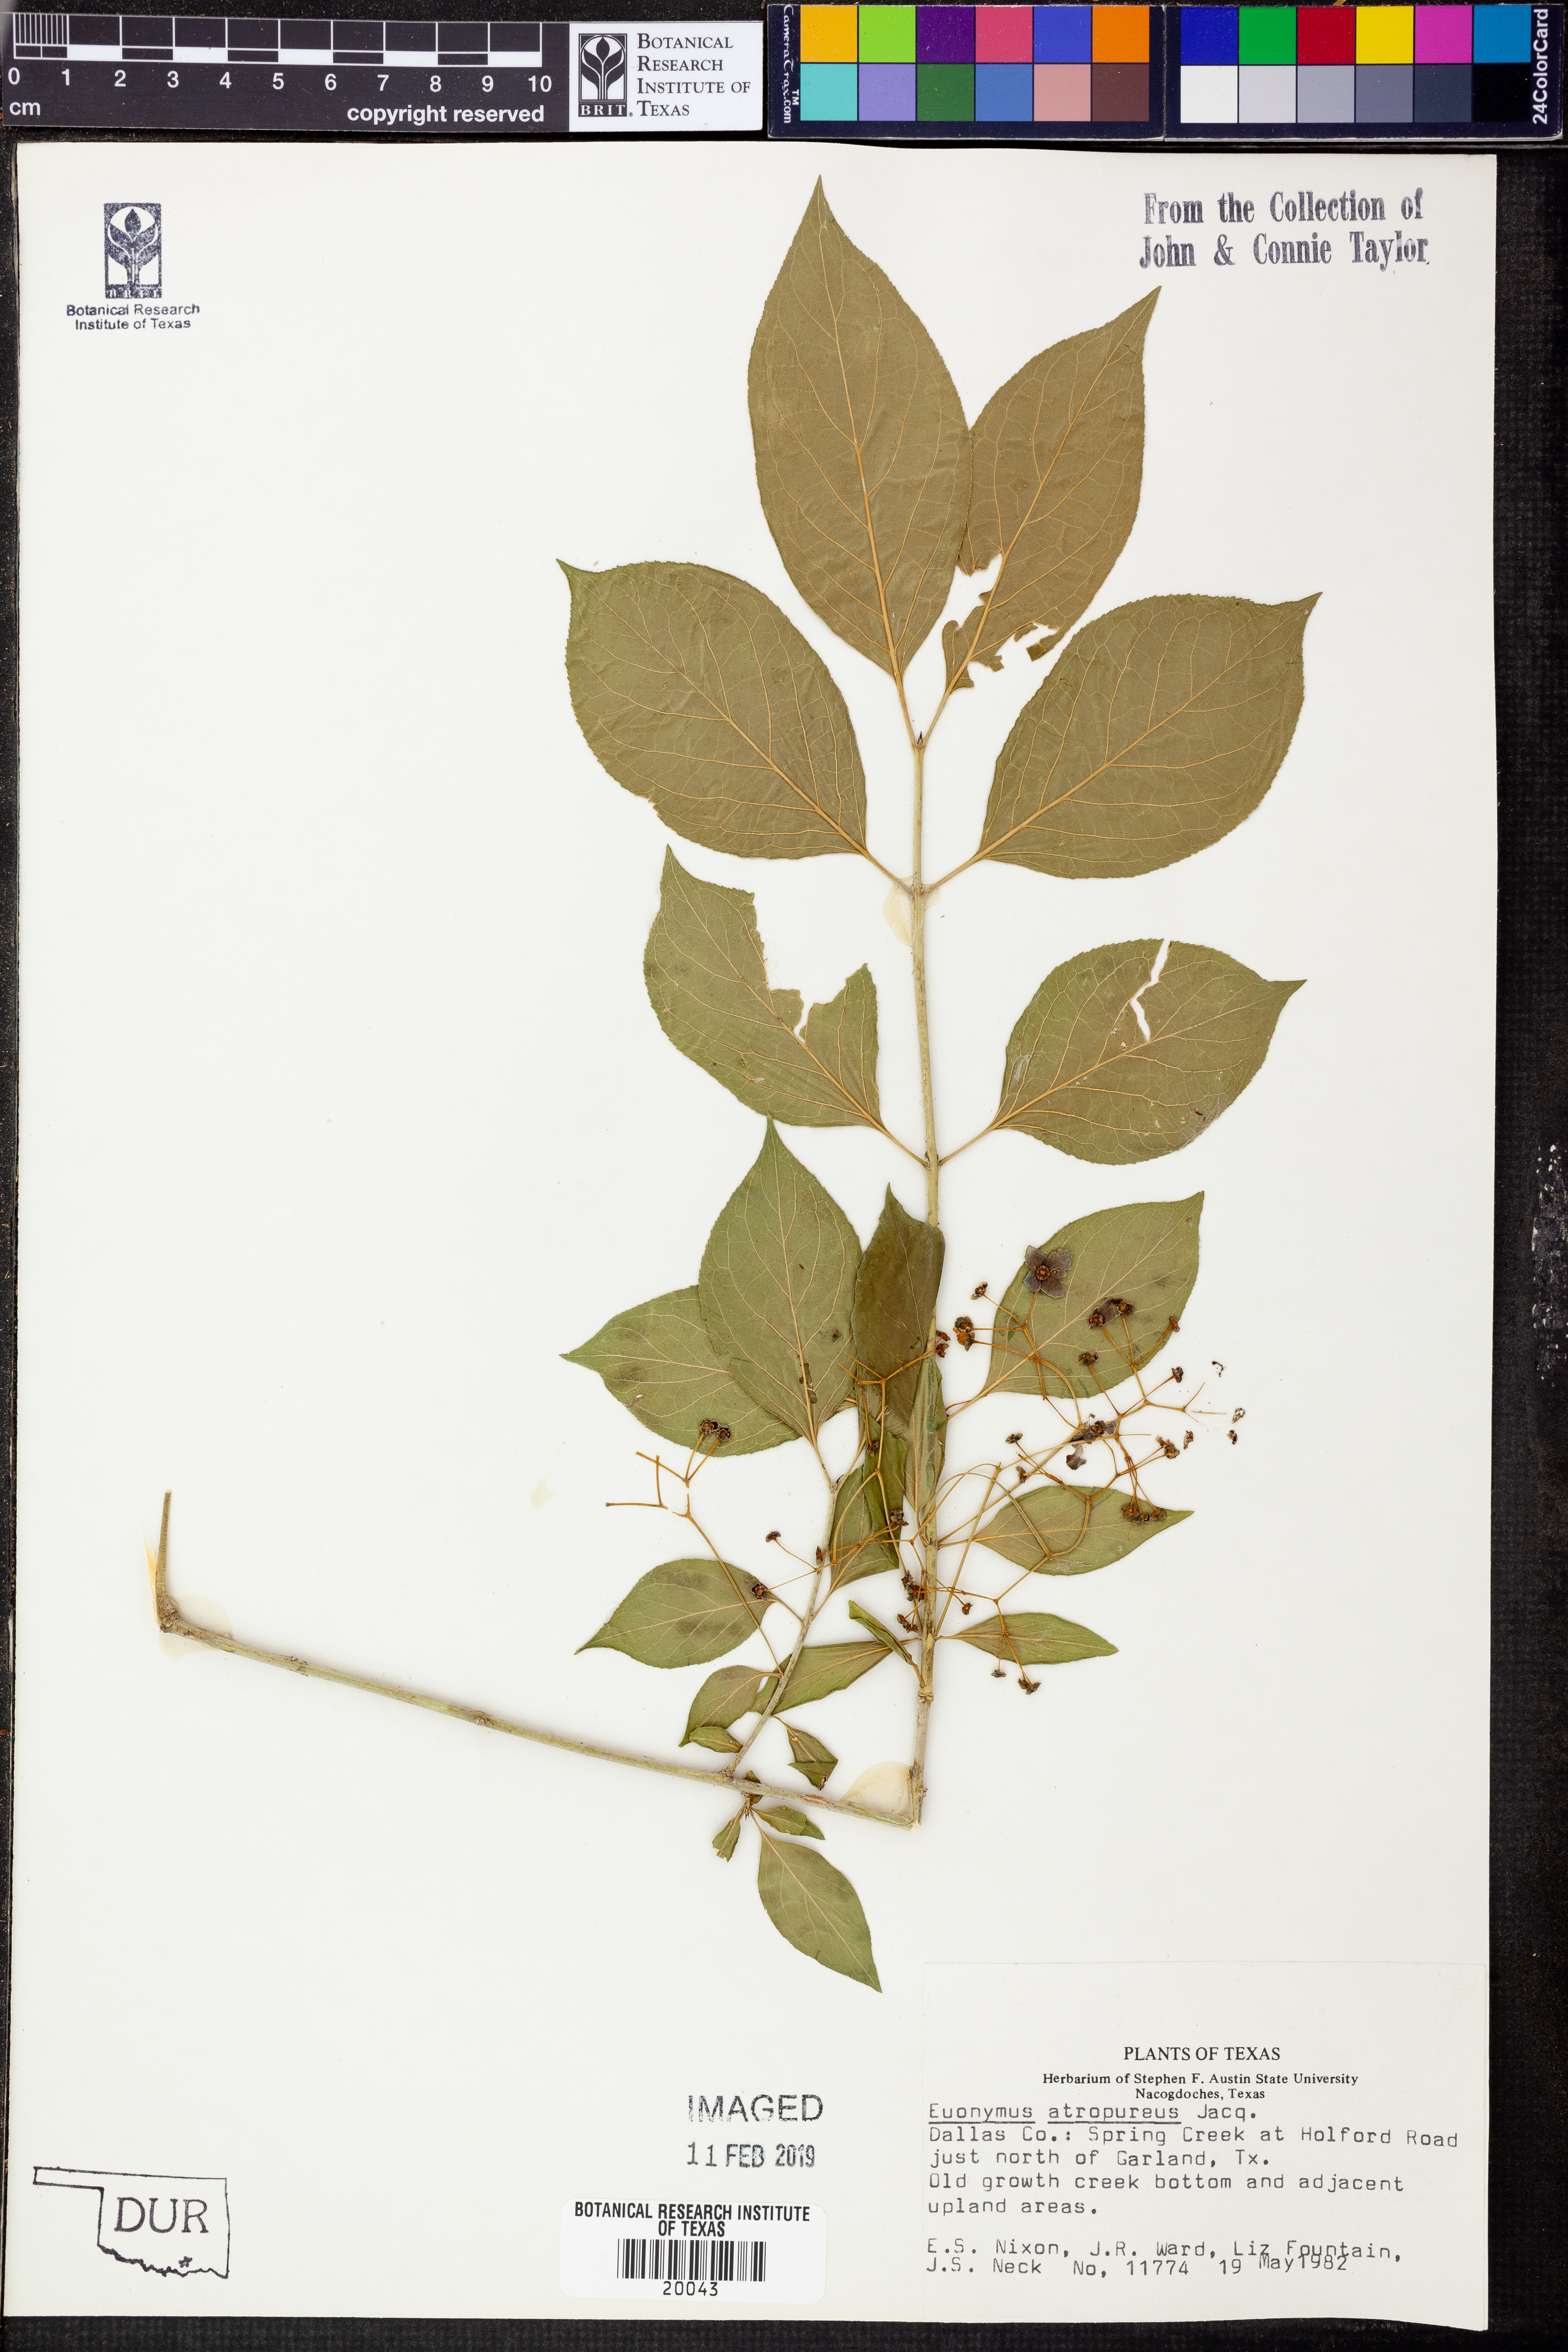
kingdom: Plantae
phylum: Tracheophyta
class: Magnoliopsida
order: Celastrales
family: Celastraceae
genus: Euonymus
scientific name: Euonymus atropurpureus
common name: Eastern wahoo
